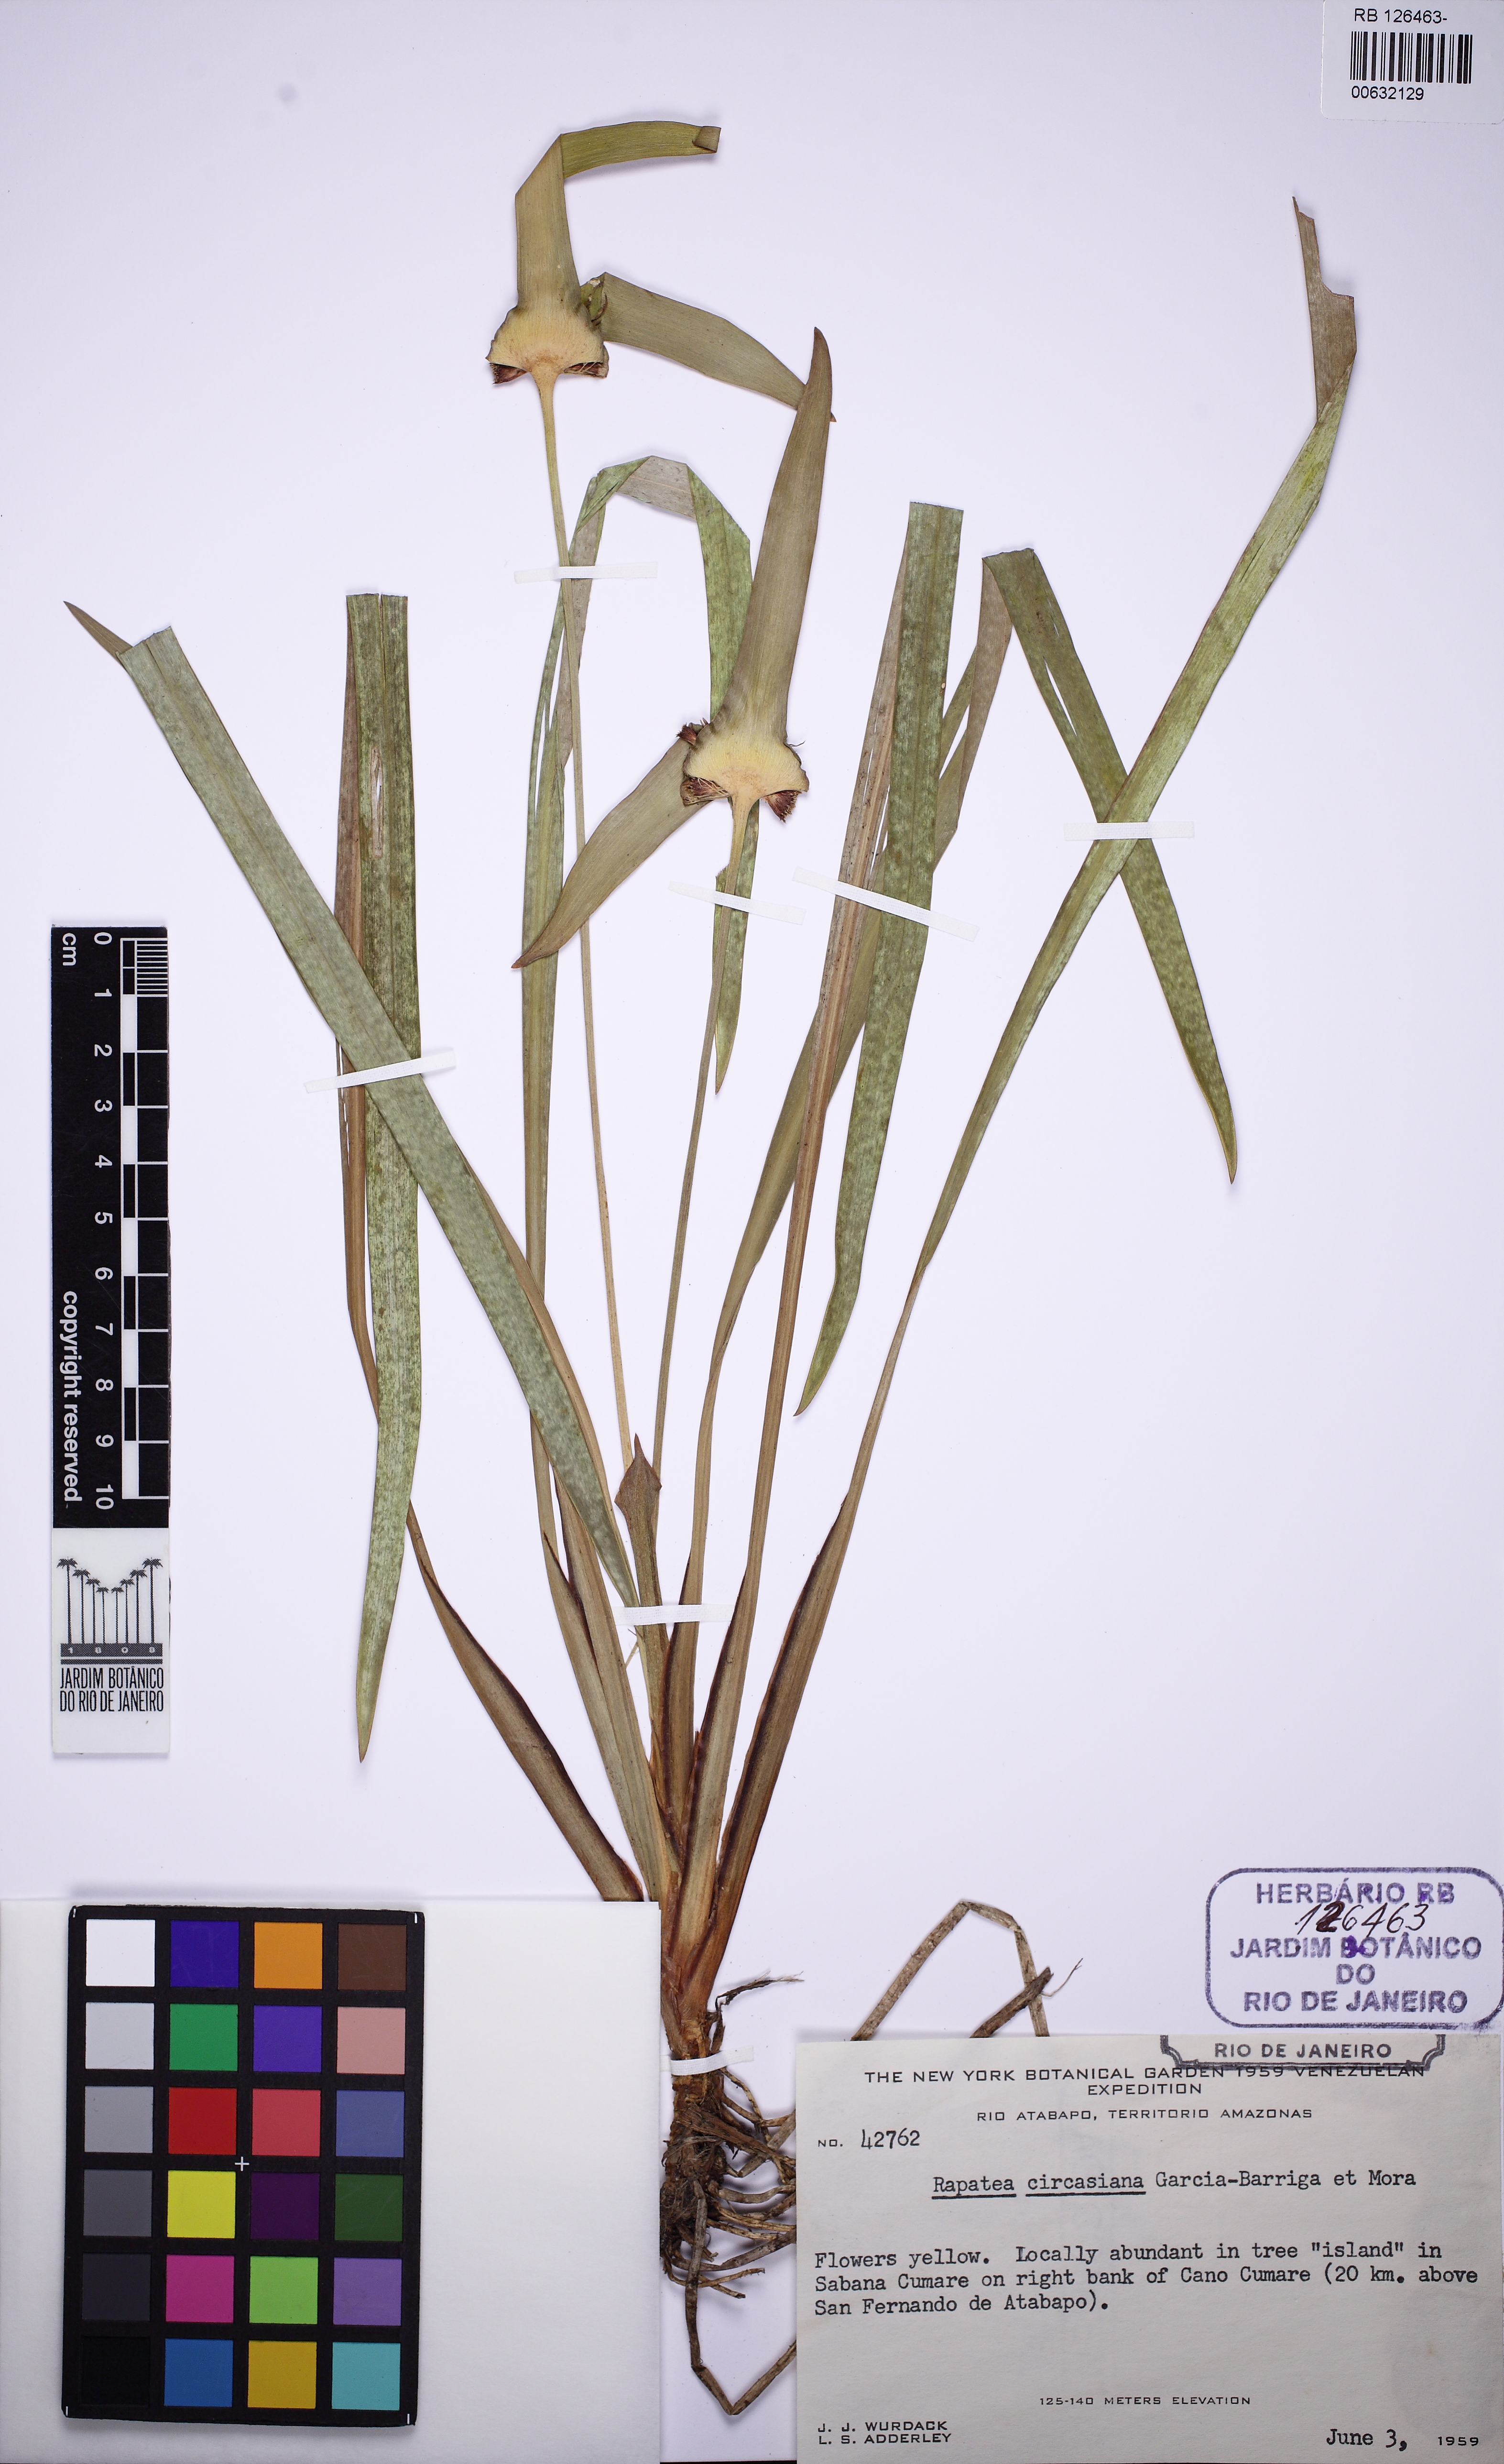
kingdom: Plantae
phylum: Tracheophyta
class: Liliopsida
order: Poales
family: Rapateaceae
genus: Rapatea
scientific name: Rapatea circasiana
